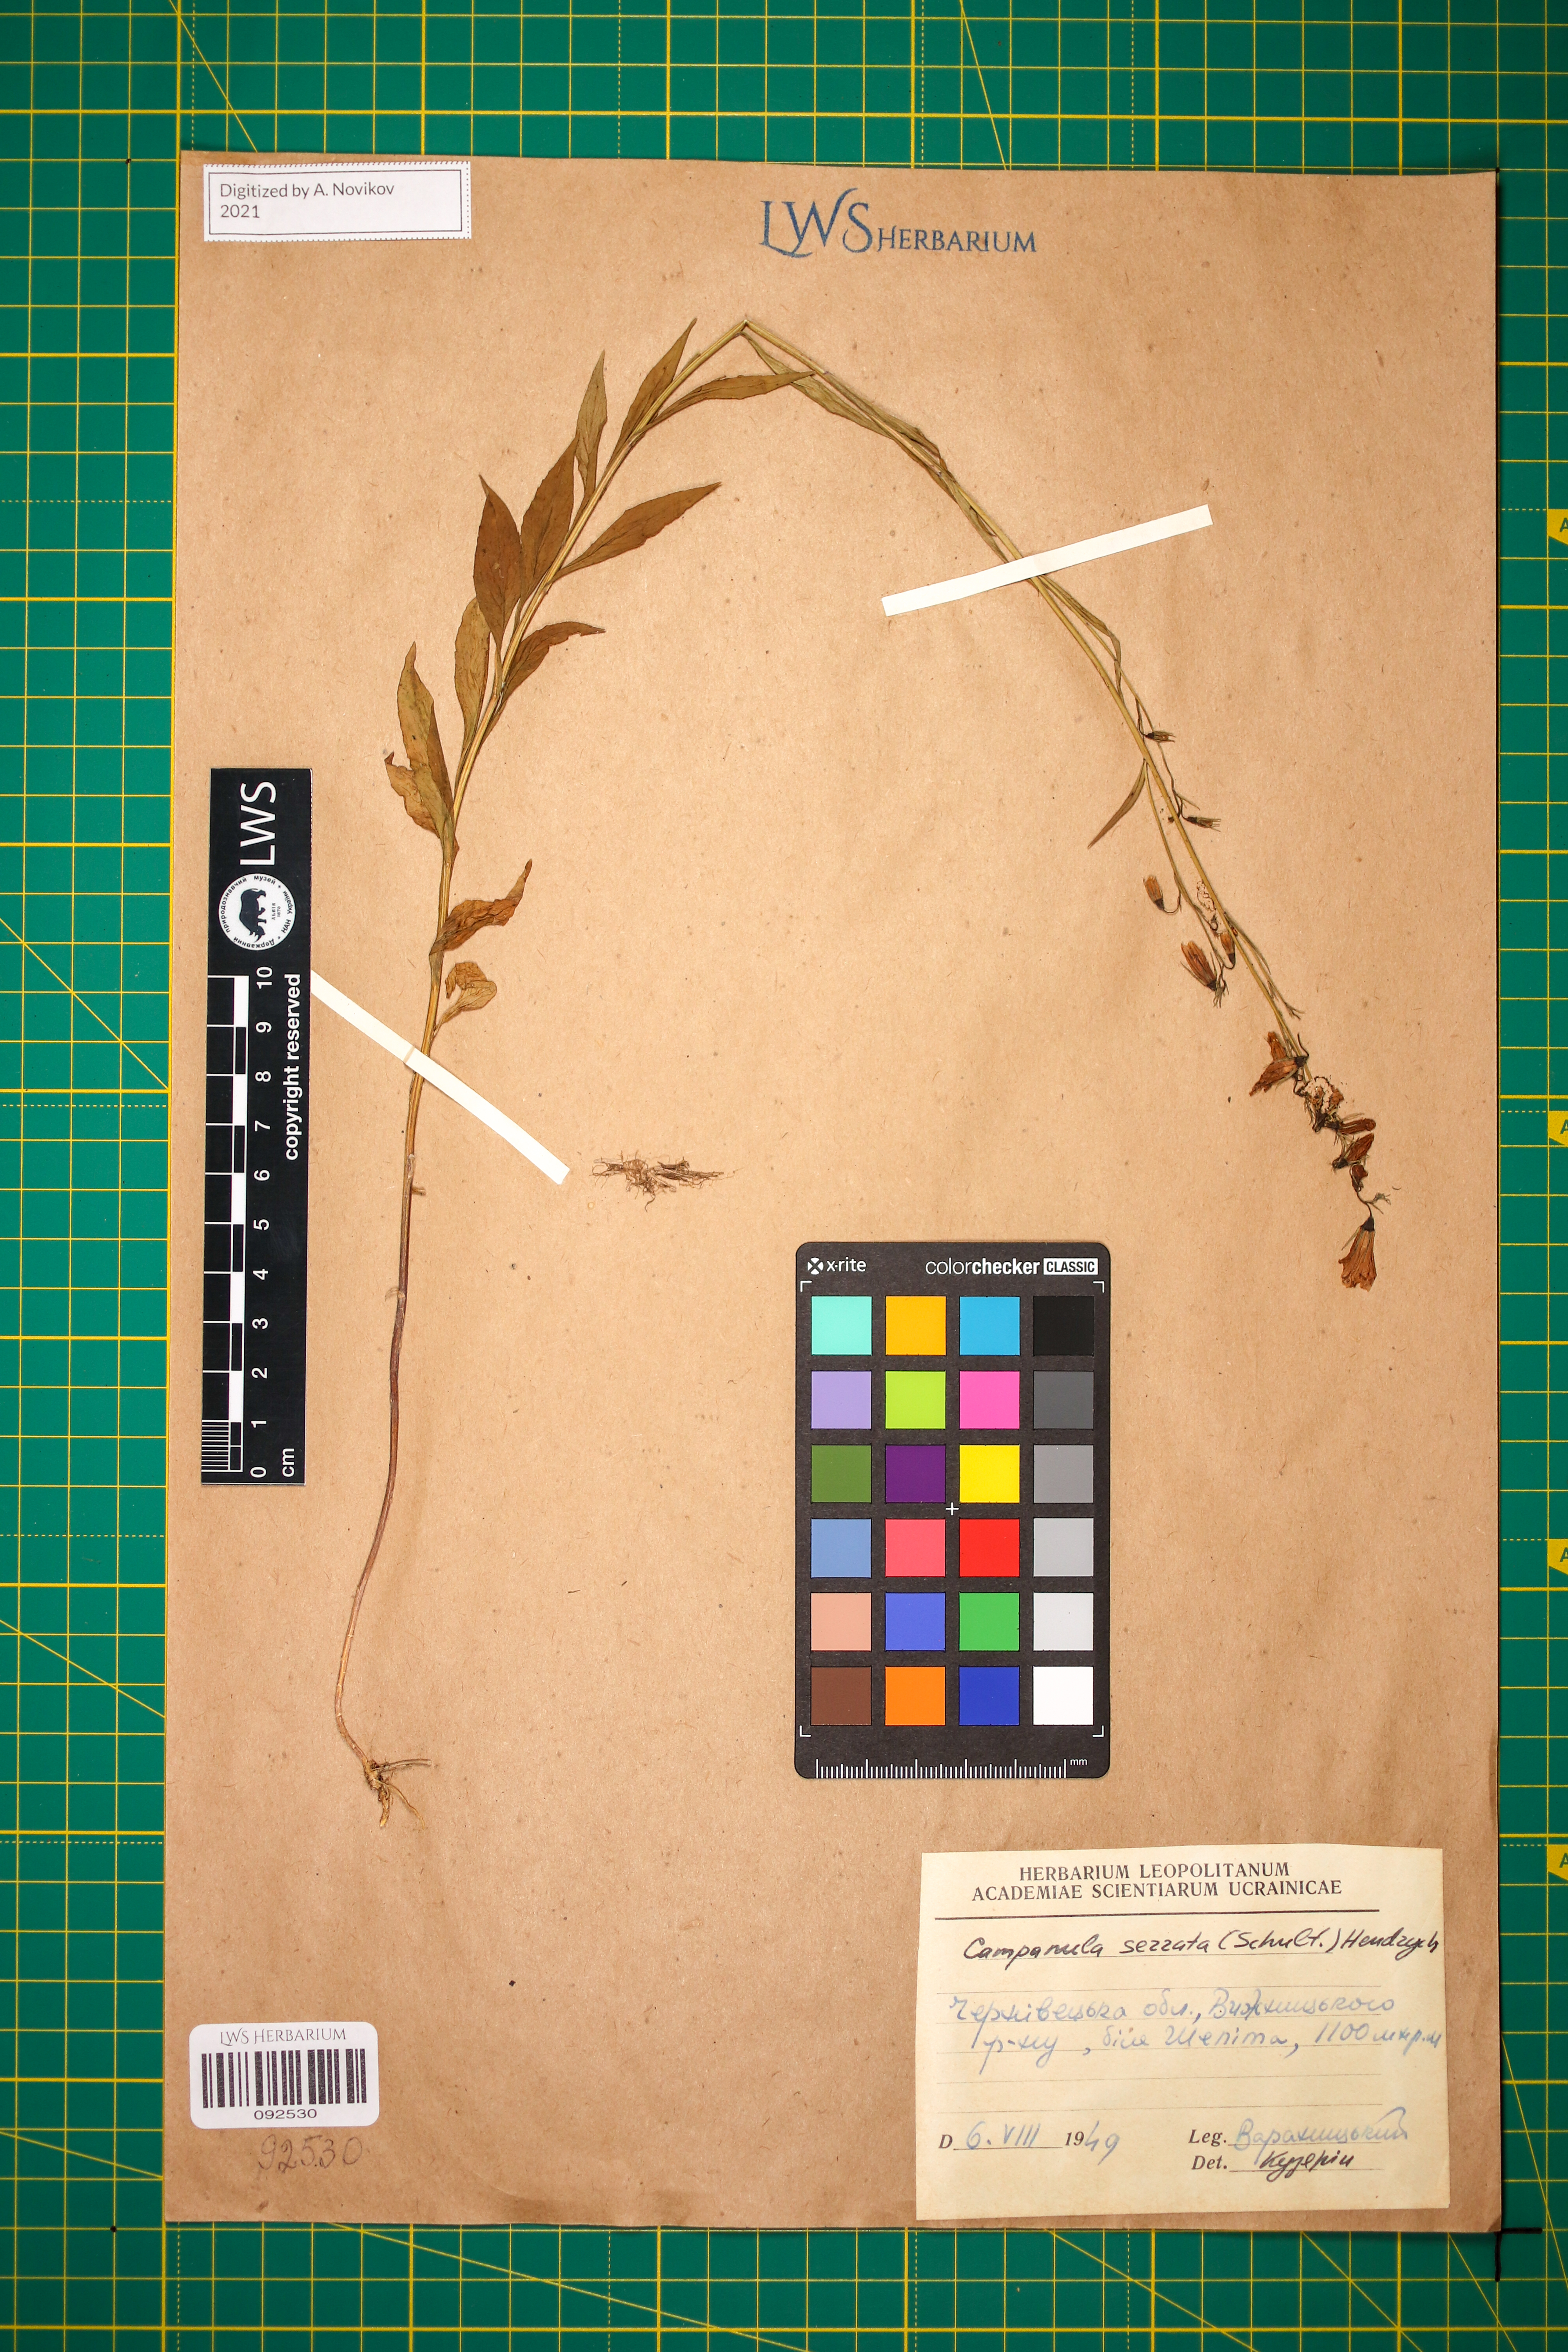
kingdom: Plantae
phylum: Tracheophyta
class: Magnoliopsida
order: Asterales
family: Campanulaceae
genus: Campanula
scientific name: Campanula serrata
